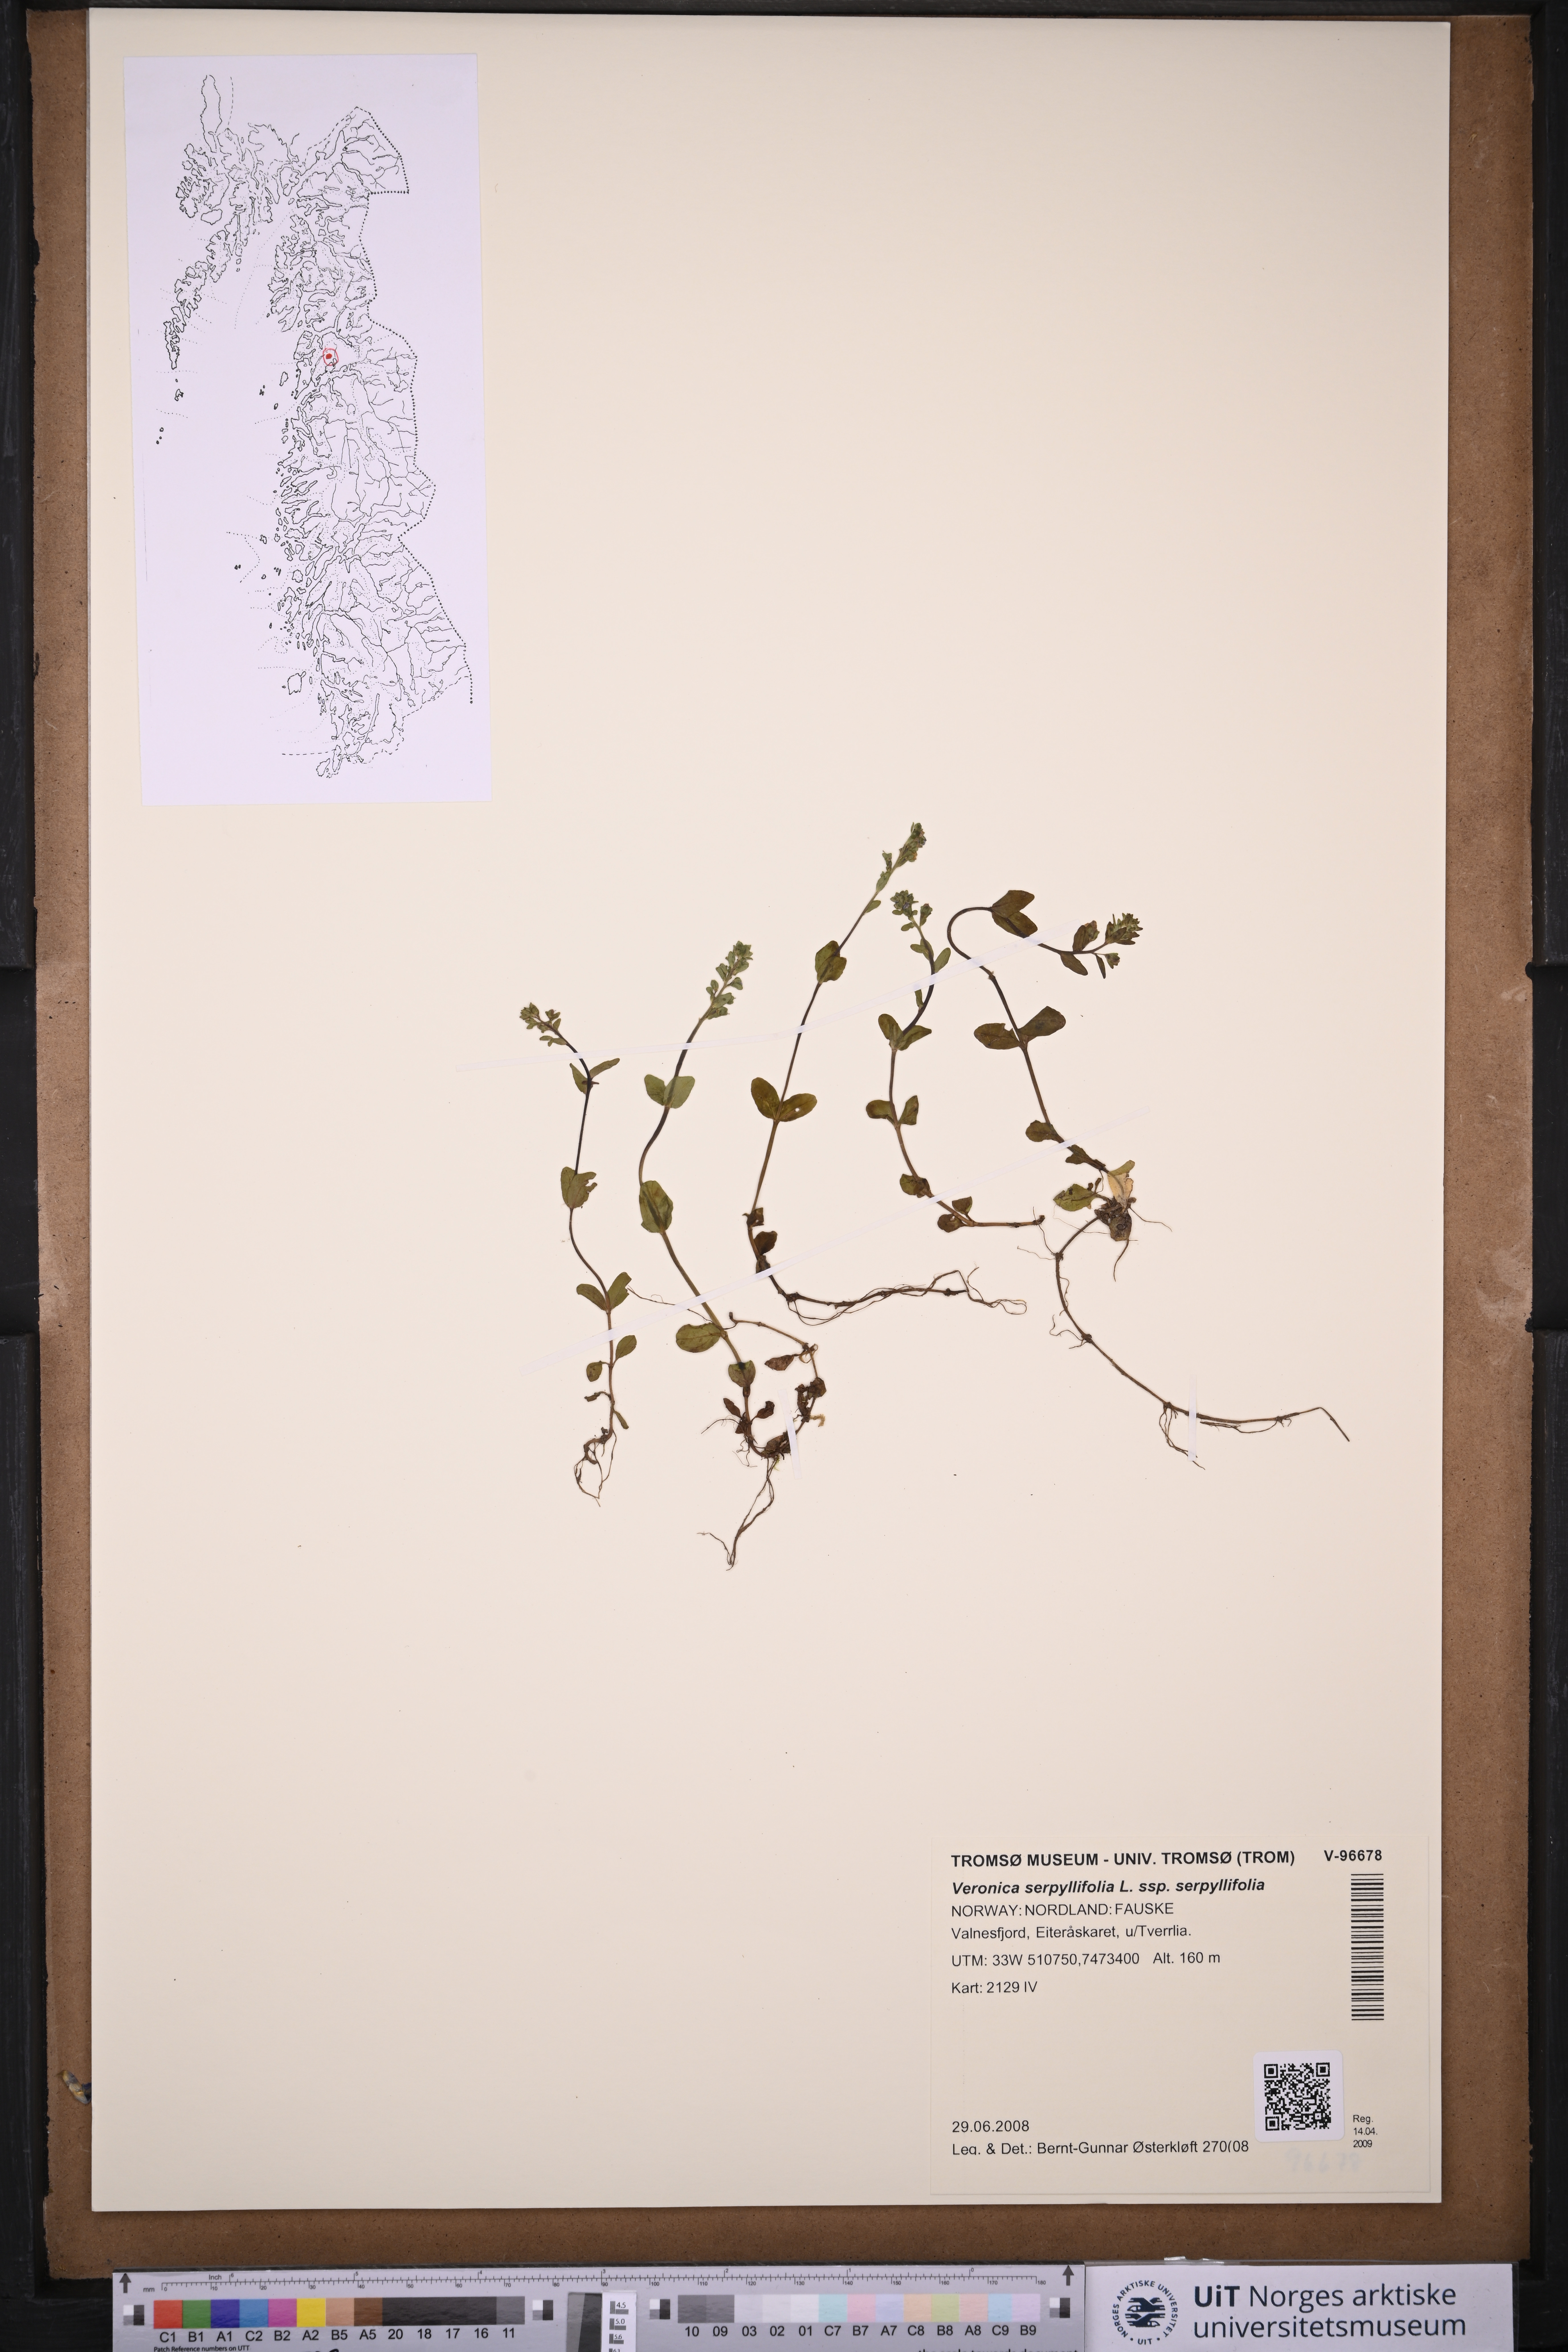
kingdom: Plantae
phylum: Tracheophyta
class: Magnoliopsida
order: Lamiales
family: Plantaginaceae
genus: Veronica
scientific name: Veronica serpyllifolia
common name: Thyme-leaved speedwell
